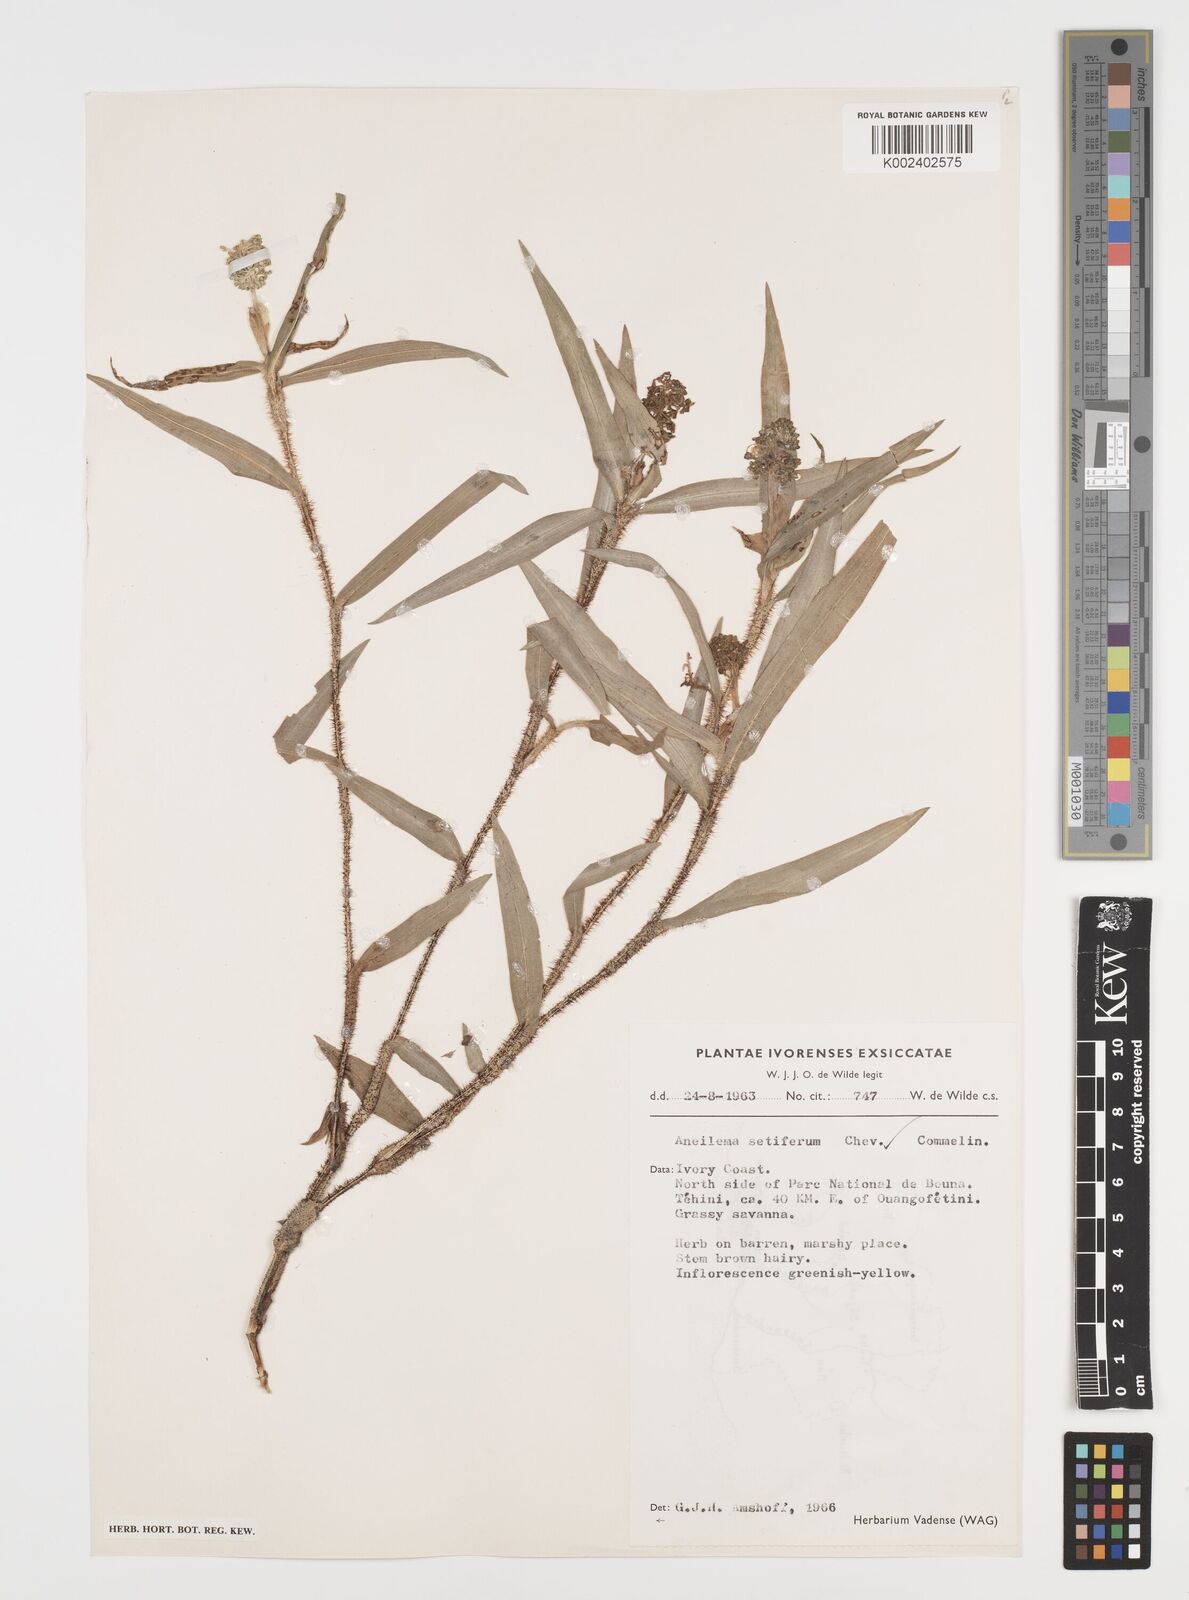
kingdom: Plantae
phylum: Tracheophyta
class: Liliopsida
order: Commelinales
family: Commelinaceae
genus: Aneilema
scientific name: Aneilema setiferum
